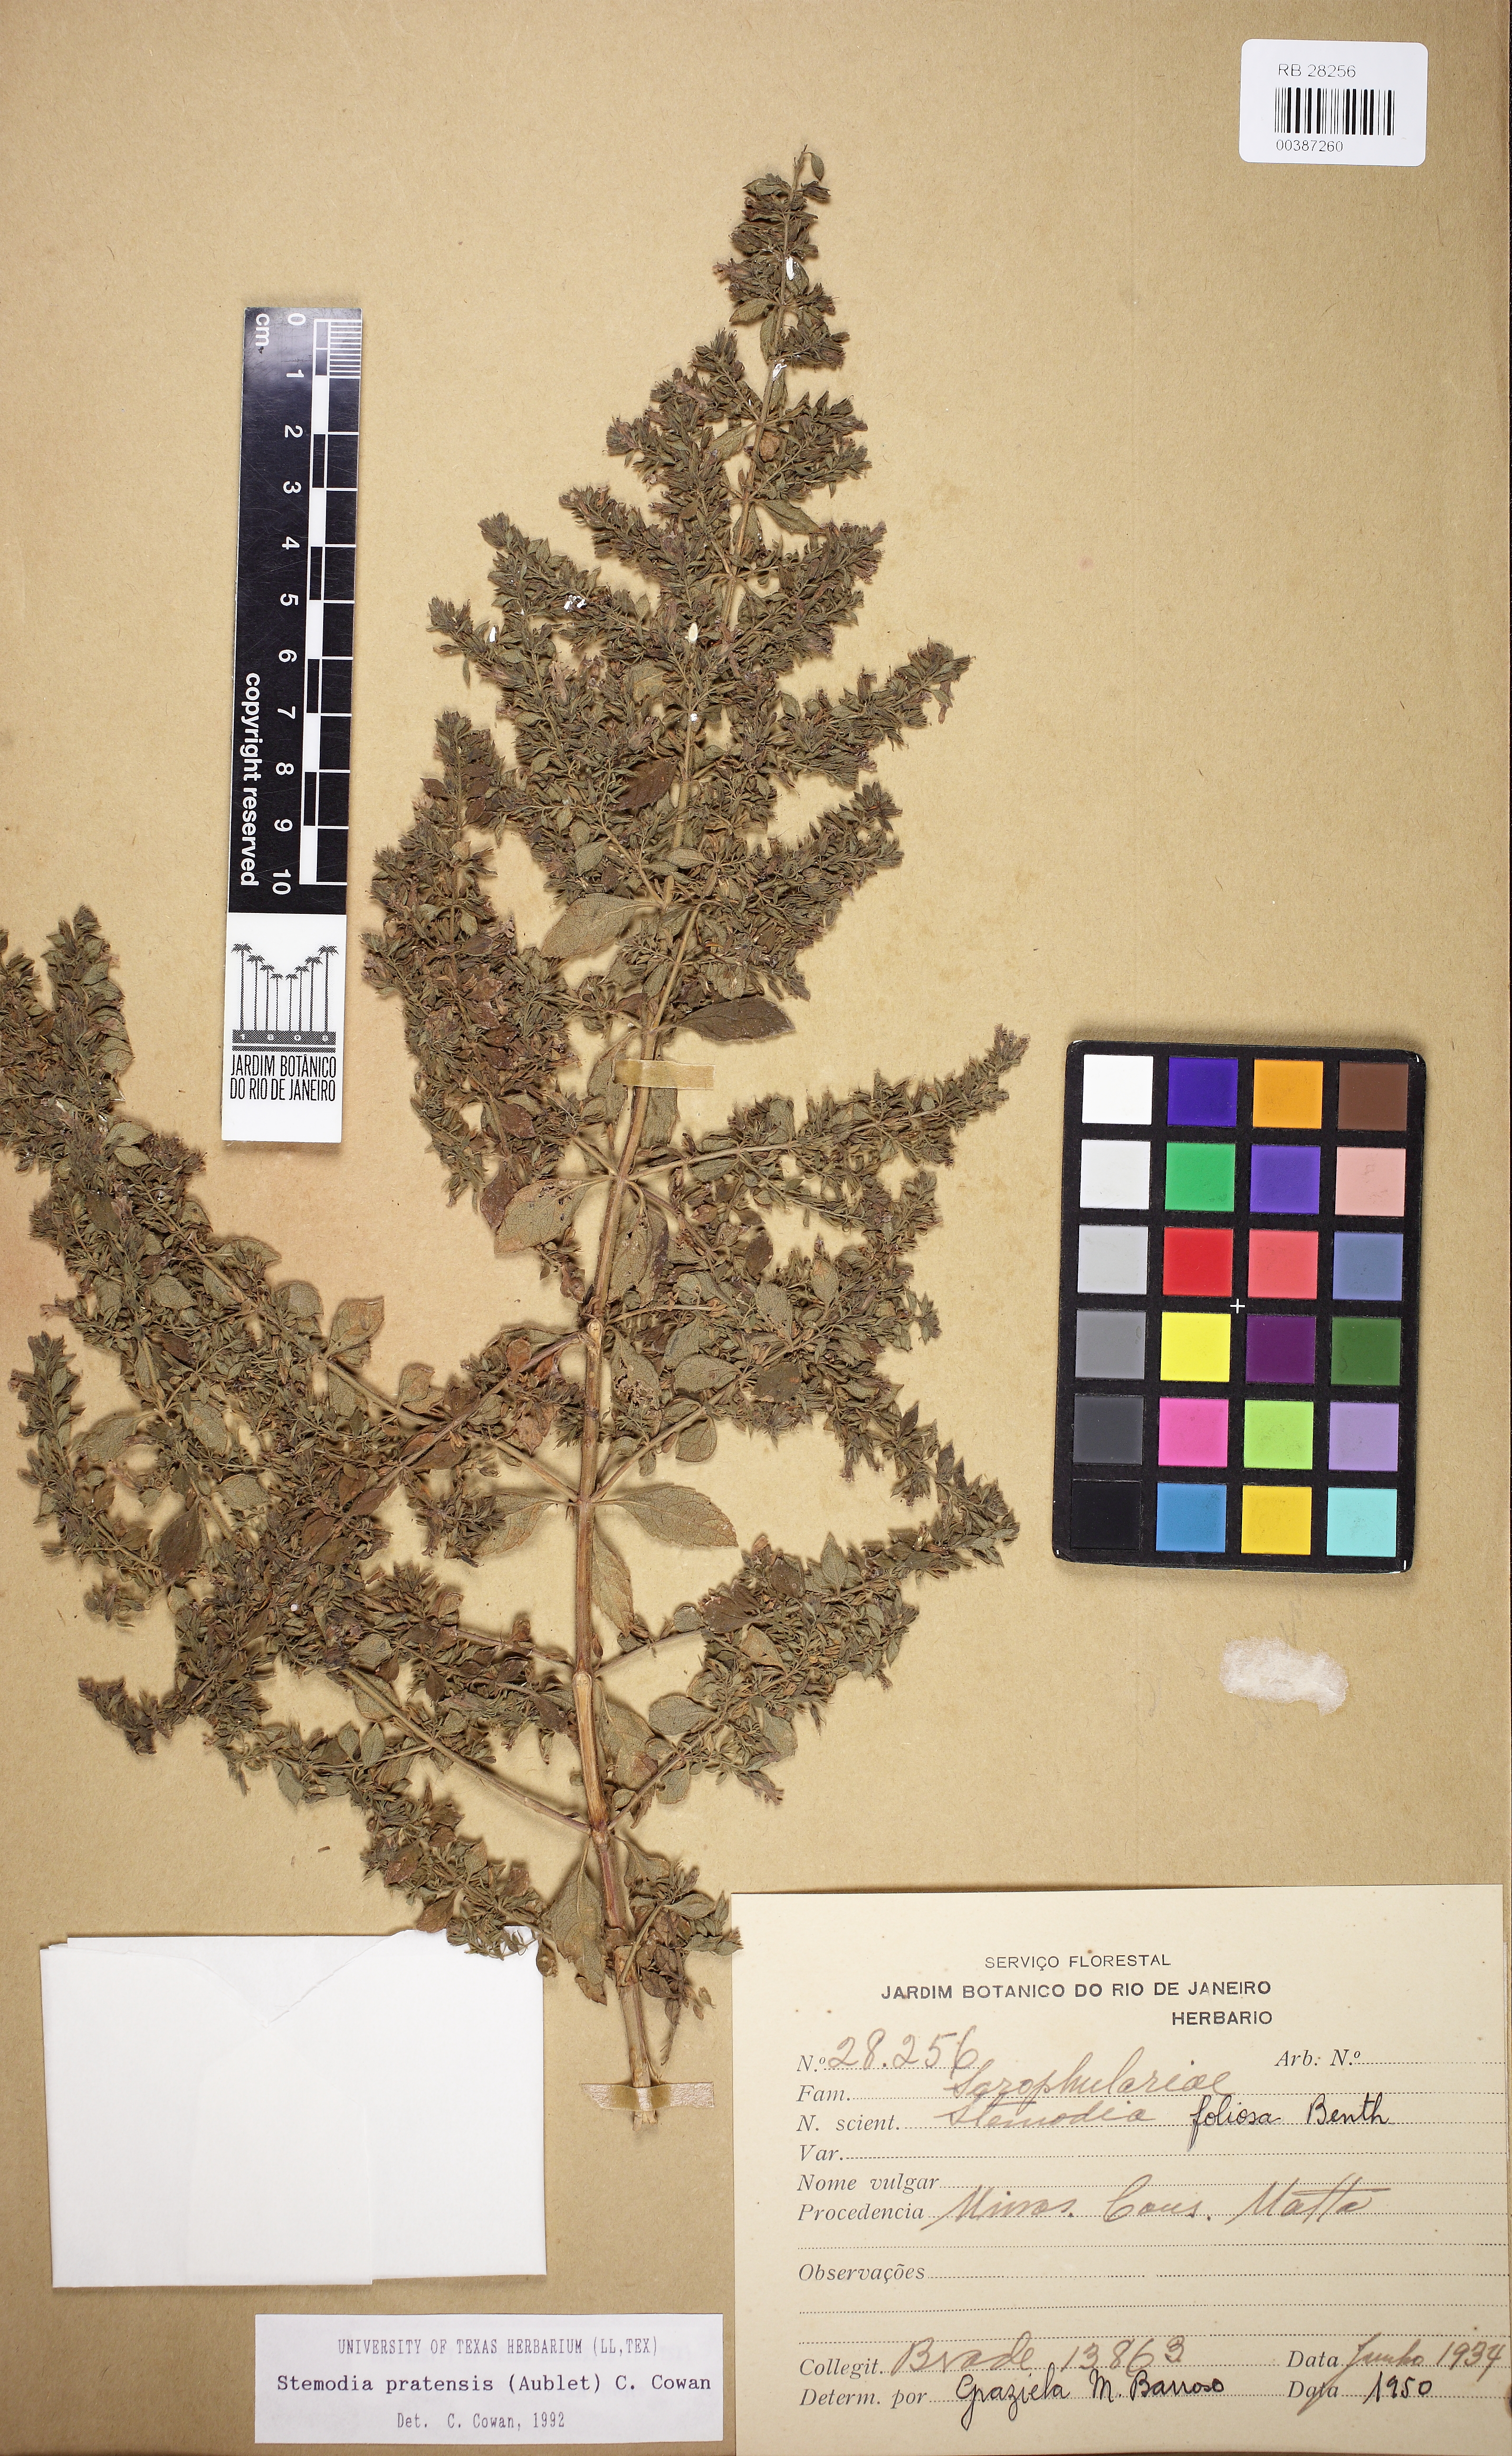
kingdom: Plantae
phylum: Tracheophyta
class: Magnoliopsida
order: Lamiales
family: Plantaginaceae
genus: Stemodia
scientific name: Stemodia foliosa
